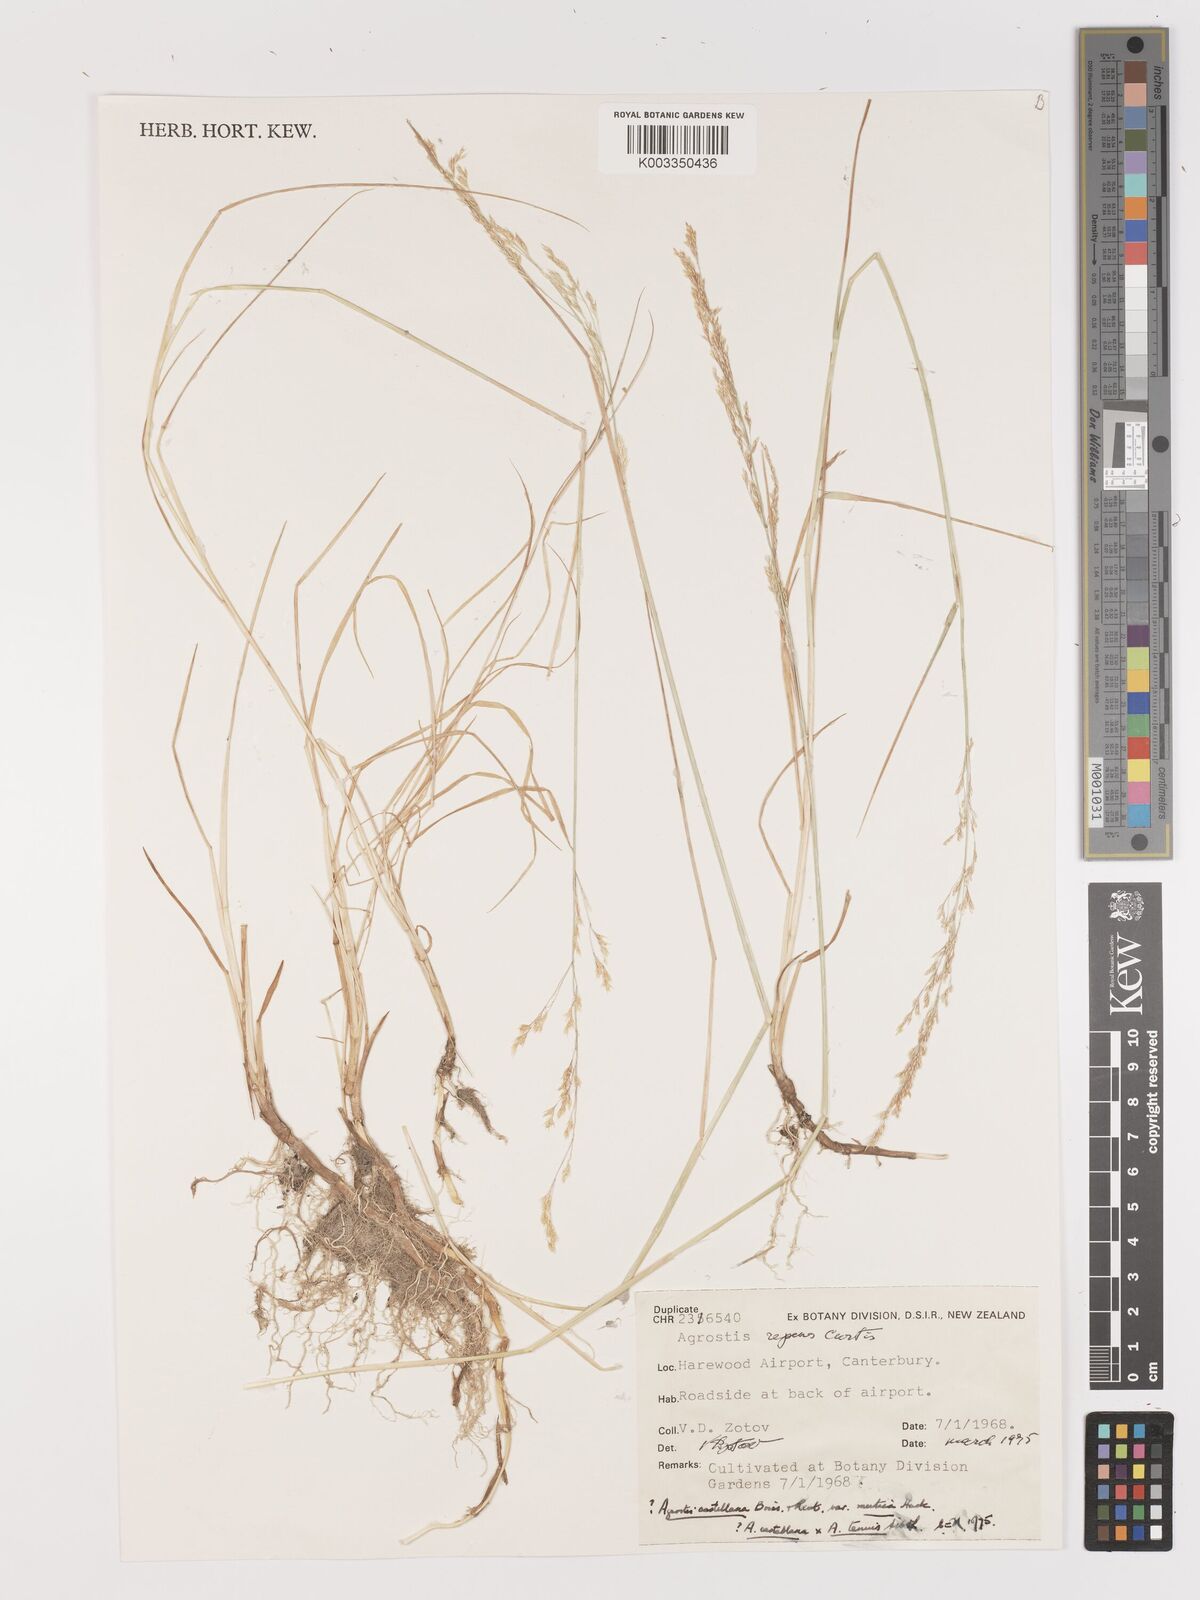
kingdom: Plantae
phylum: Tracheophyta
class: Liliopsida
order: Poales
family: Poaceae
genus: Agrostis
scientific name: Agrostis castellana
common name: Highland bent
